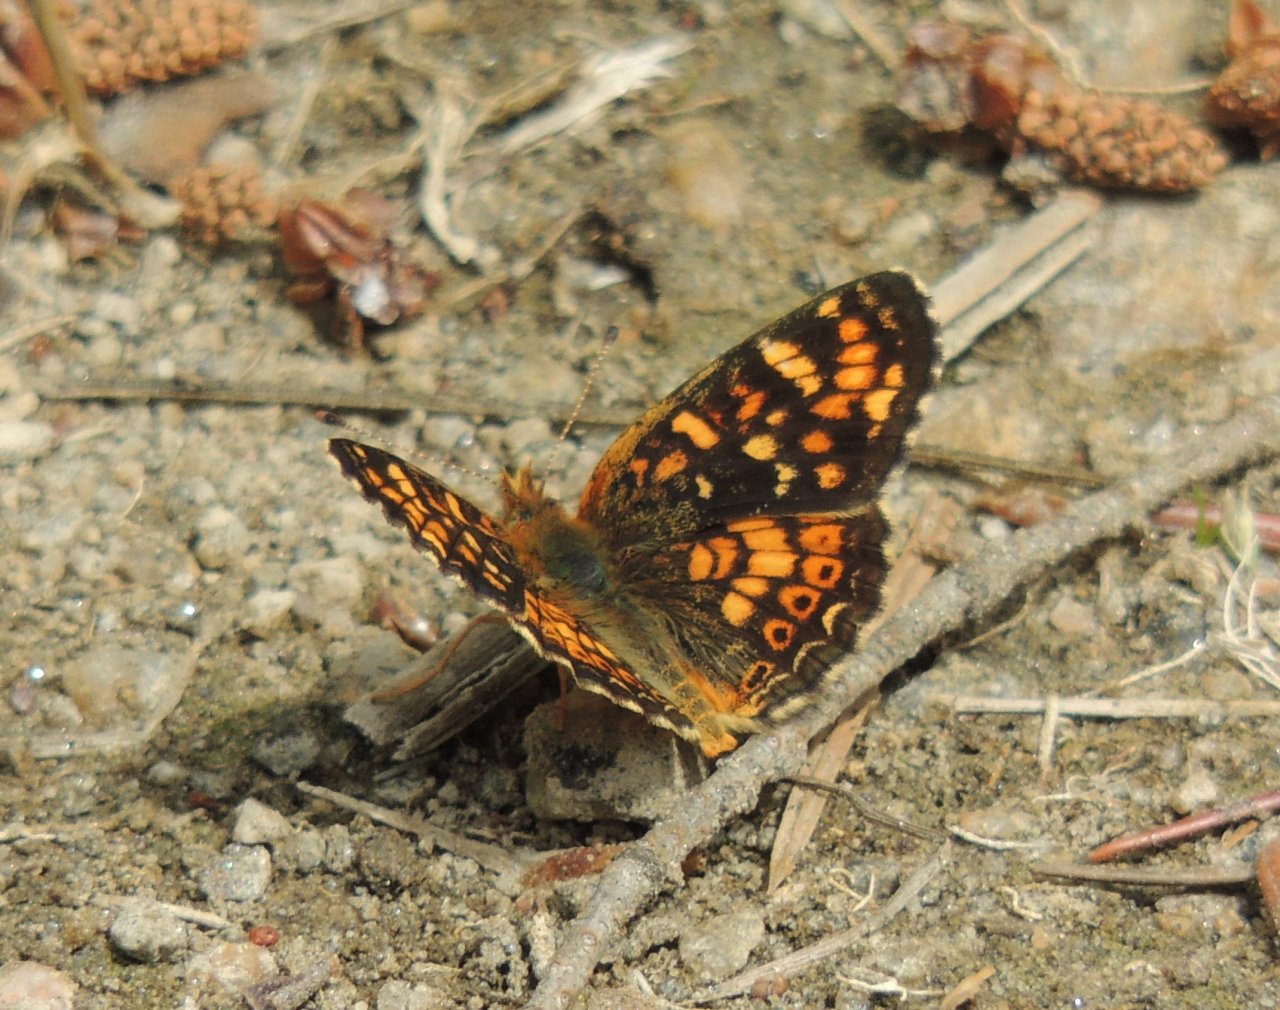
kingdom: Animalia
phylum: Arthropoda
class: Insecta
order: Lepidoptera
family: Nymphalidae
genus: Phyciodes
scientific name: Phyciodes tharos
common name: Field Crescent
